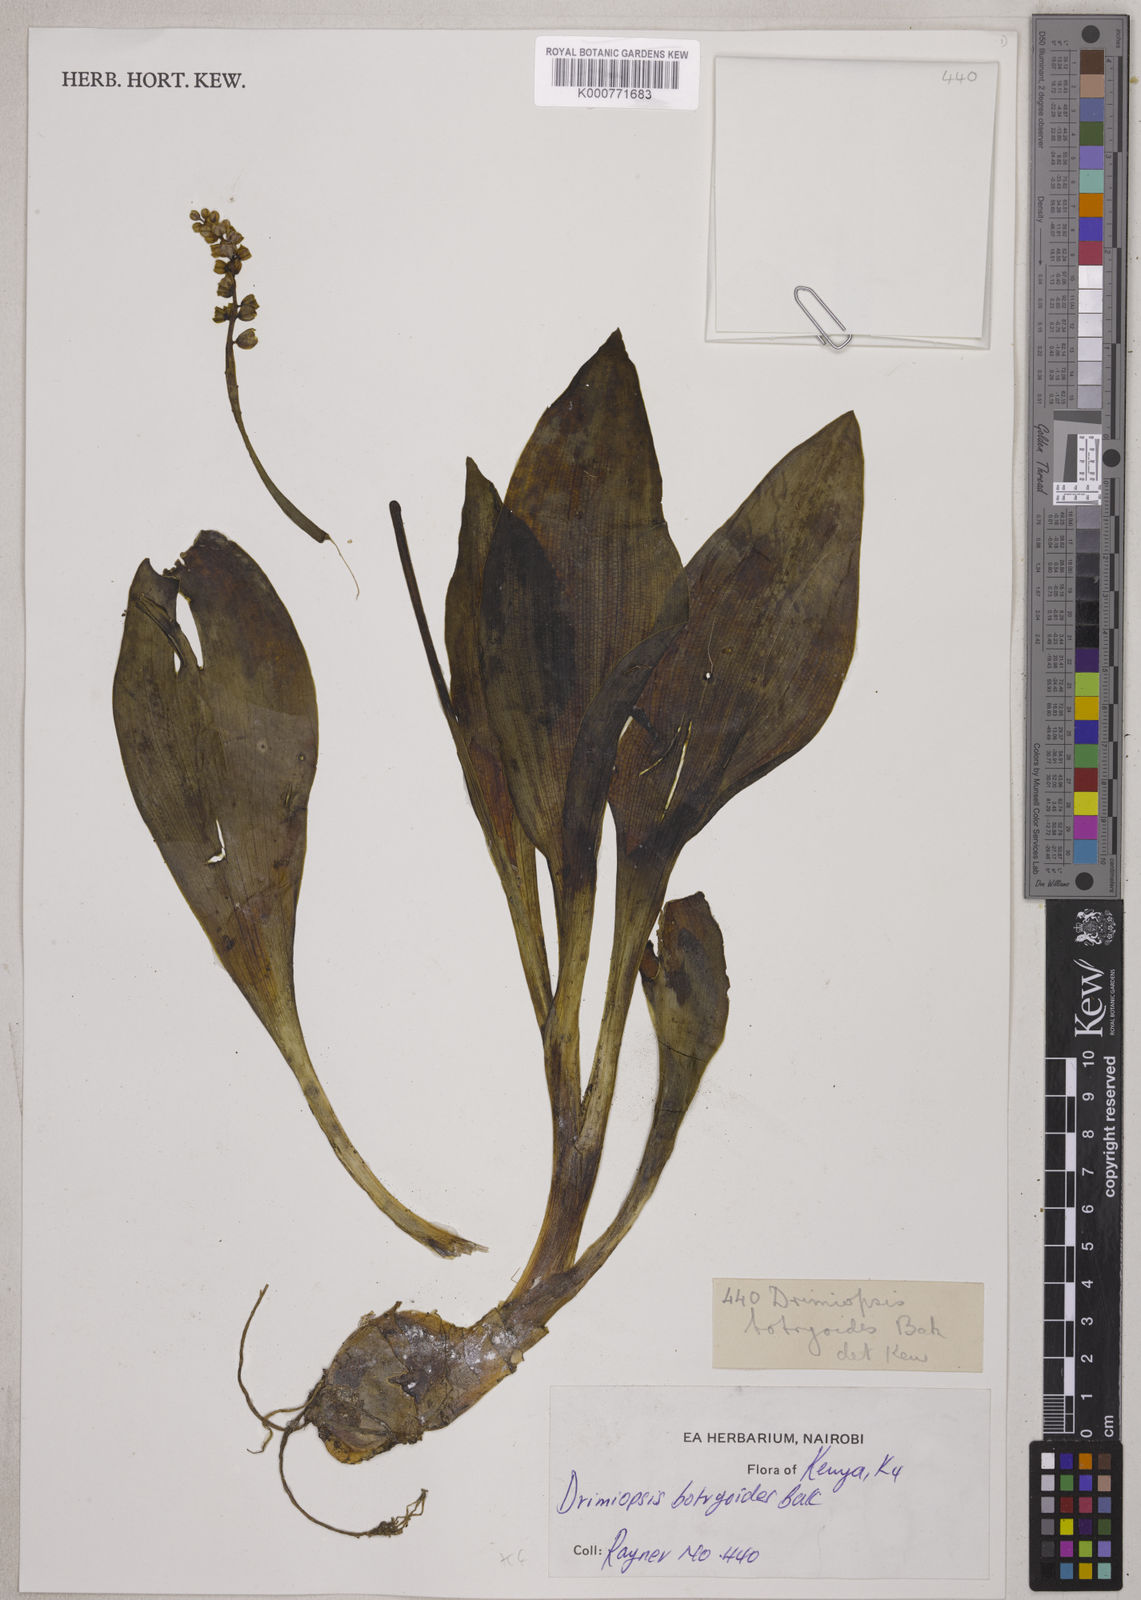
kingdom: Plantae
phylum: Tracheophyta
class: Liliopsida
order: Asparagales
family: Asparagaceae
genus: Drimiopsis
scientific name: Drimiopsis botryoides
